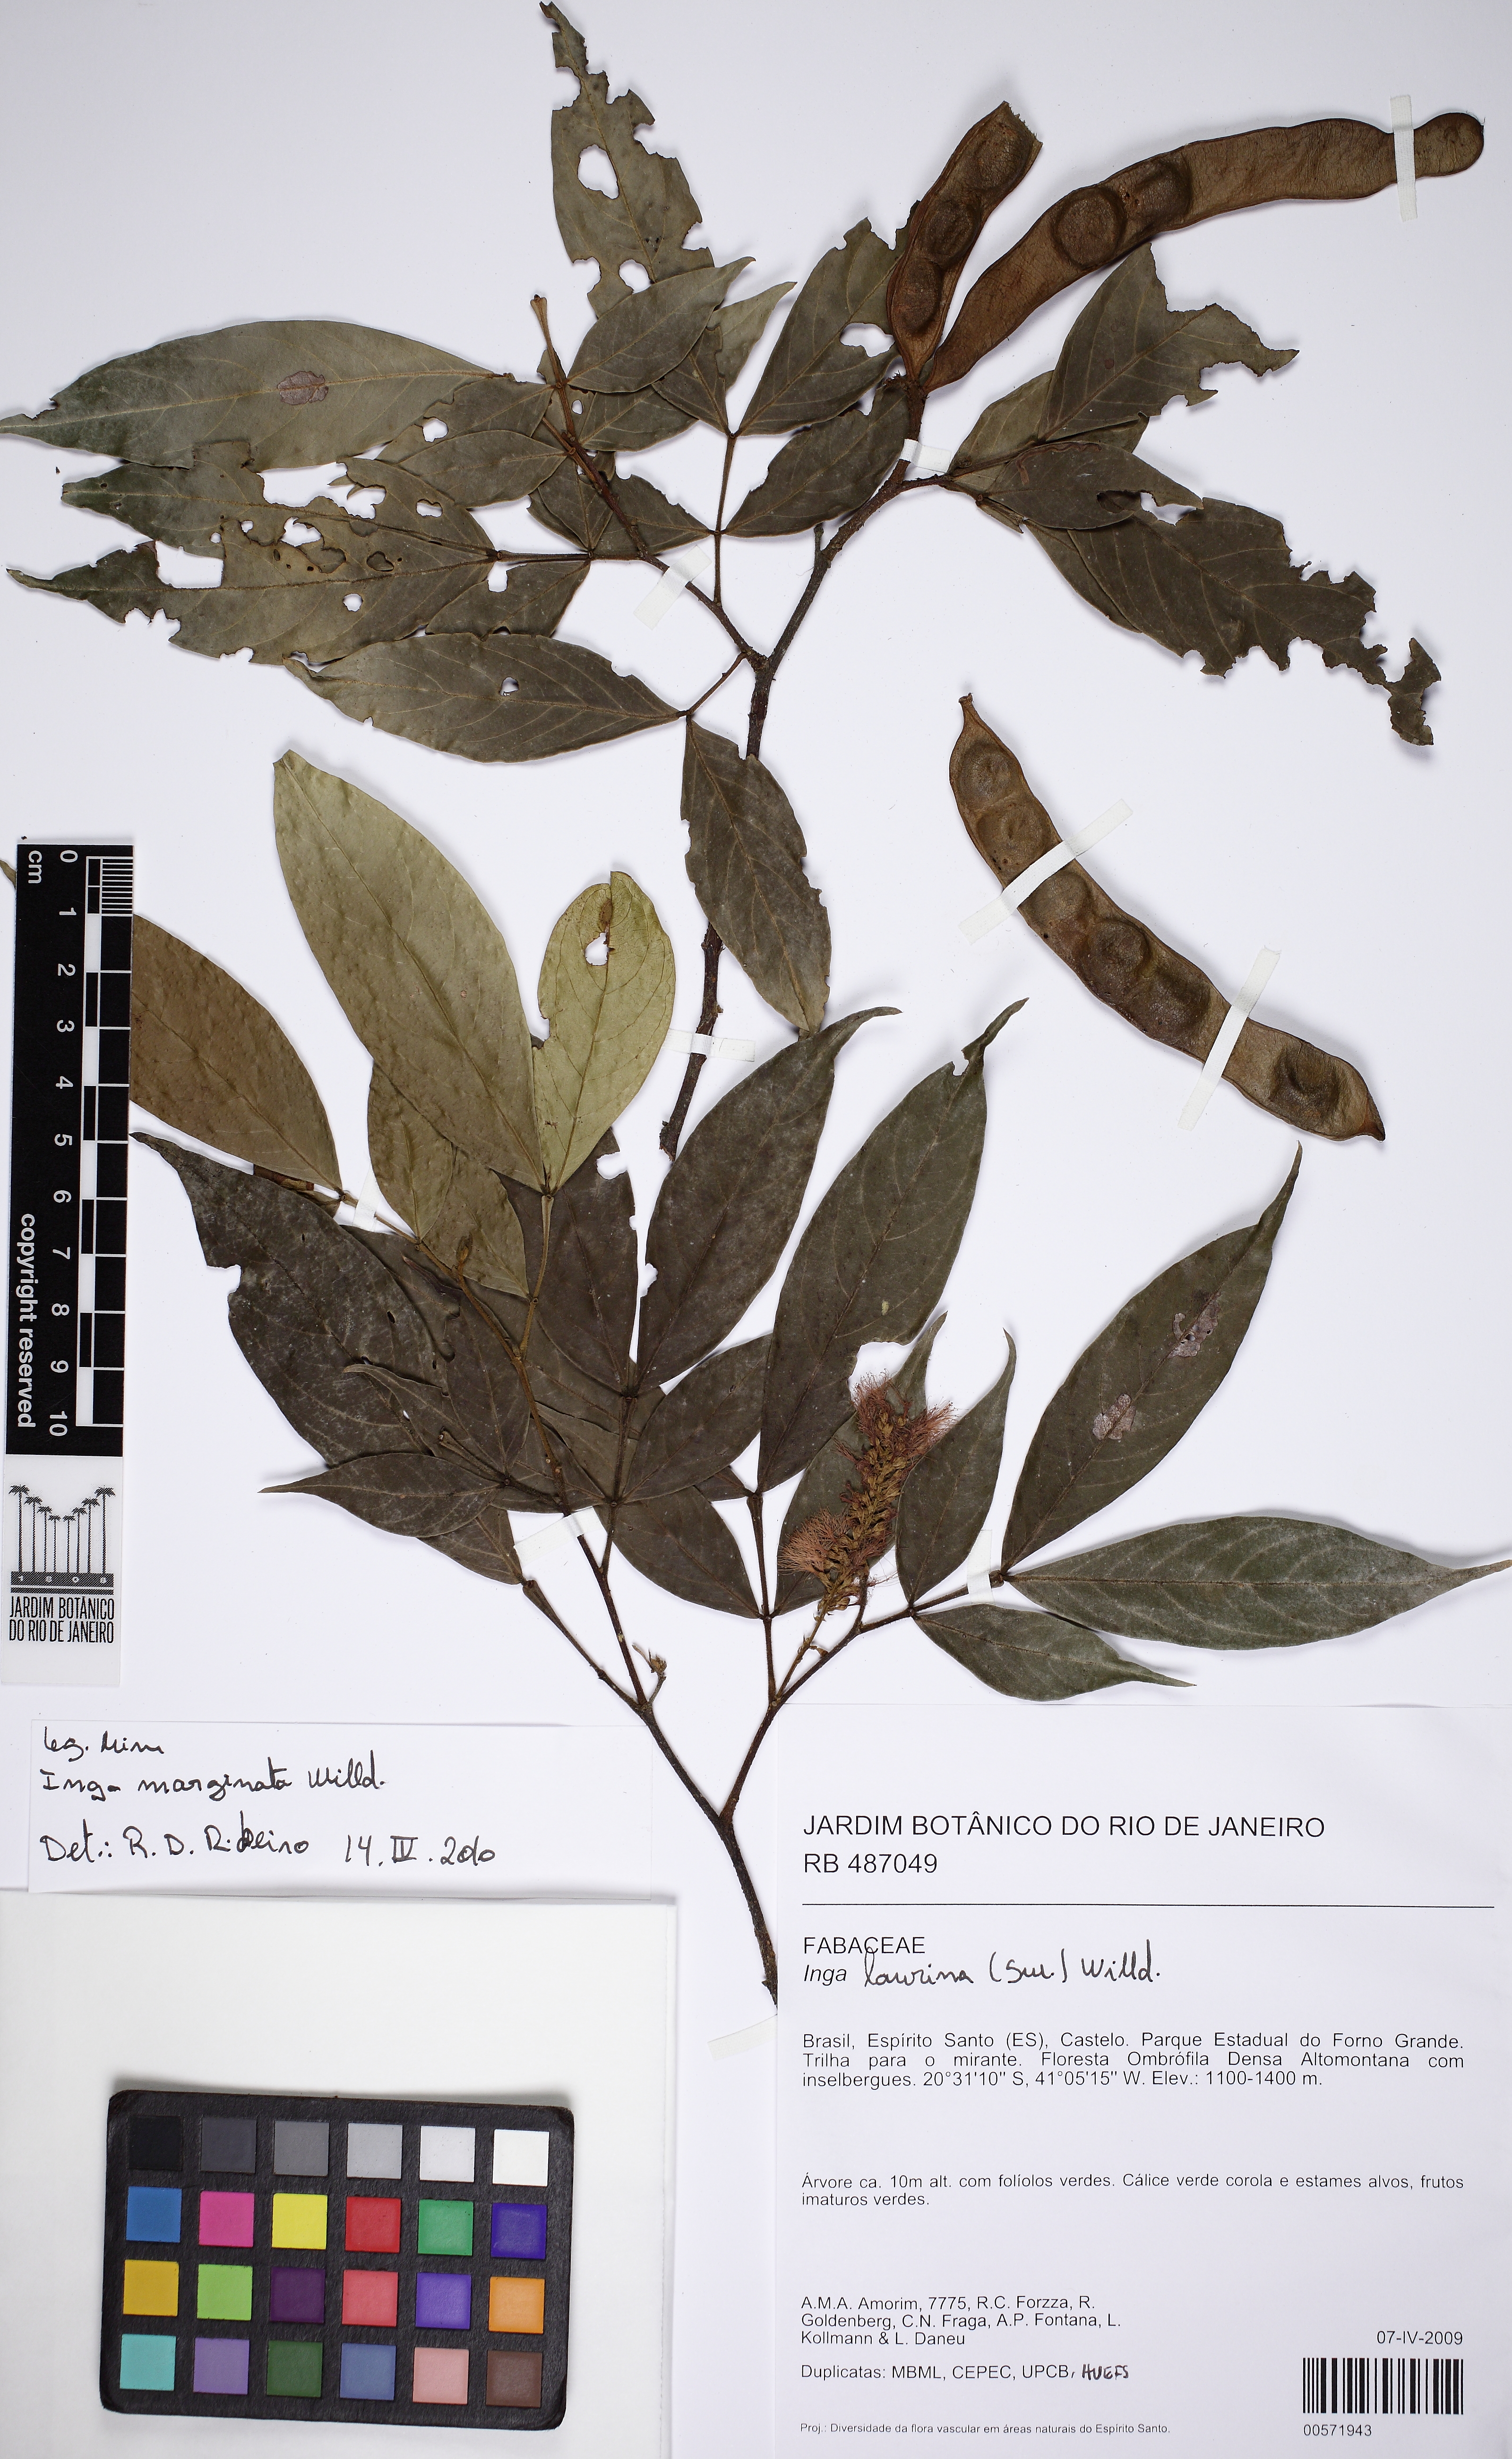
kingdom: Plantae
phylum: Tracheophyta
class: Magnoliopsida
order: Fabales
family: Fabaceae
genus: Inga
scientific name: Inga marginata
